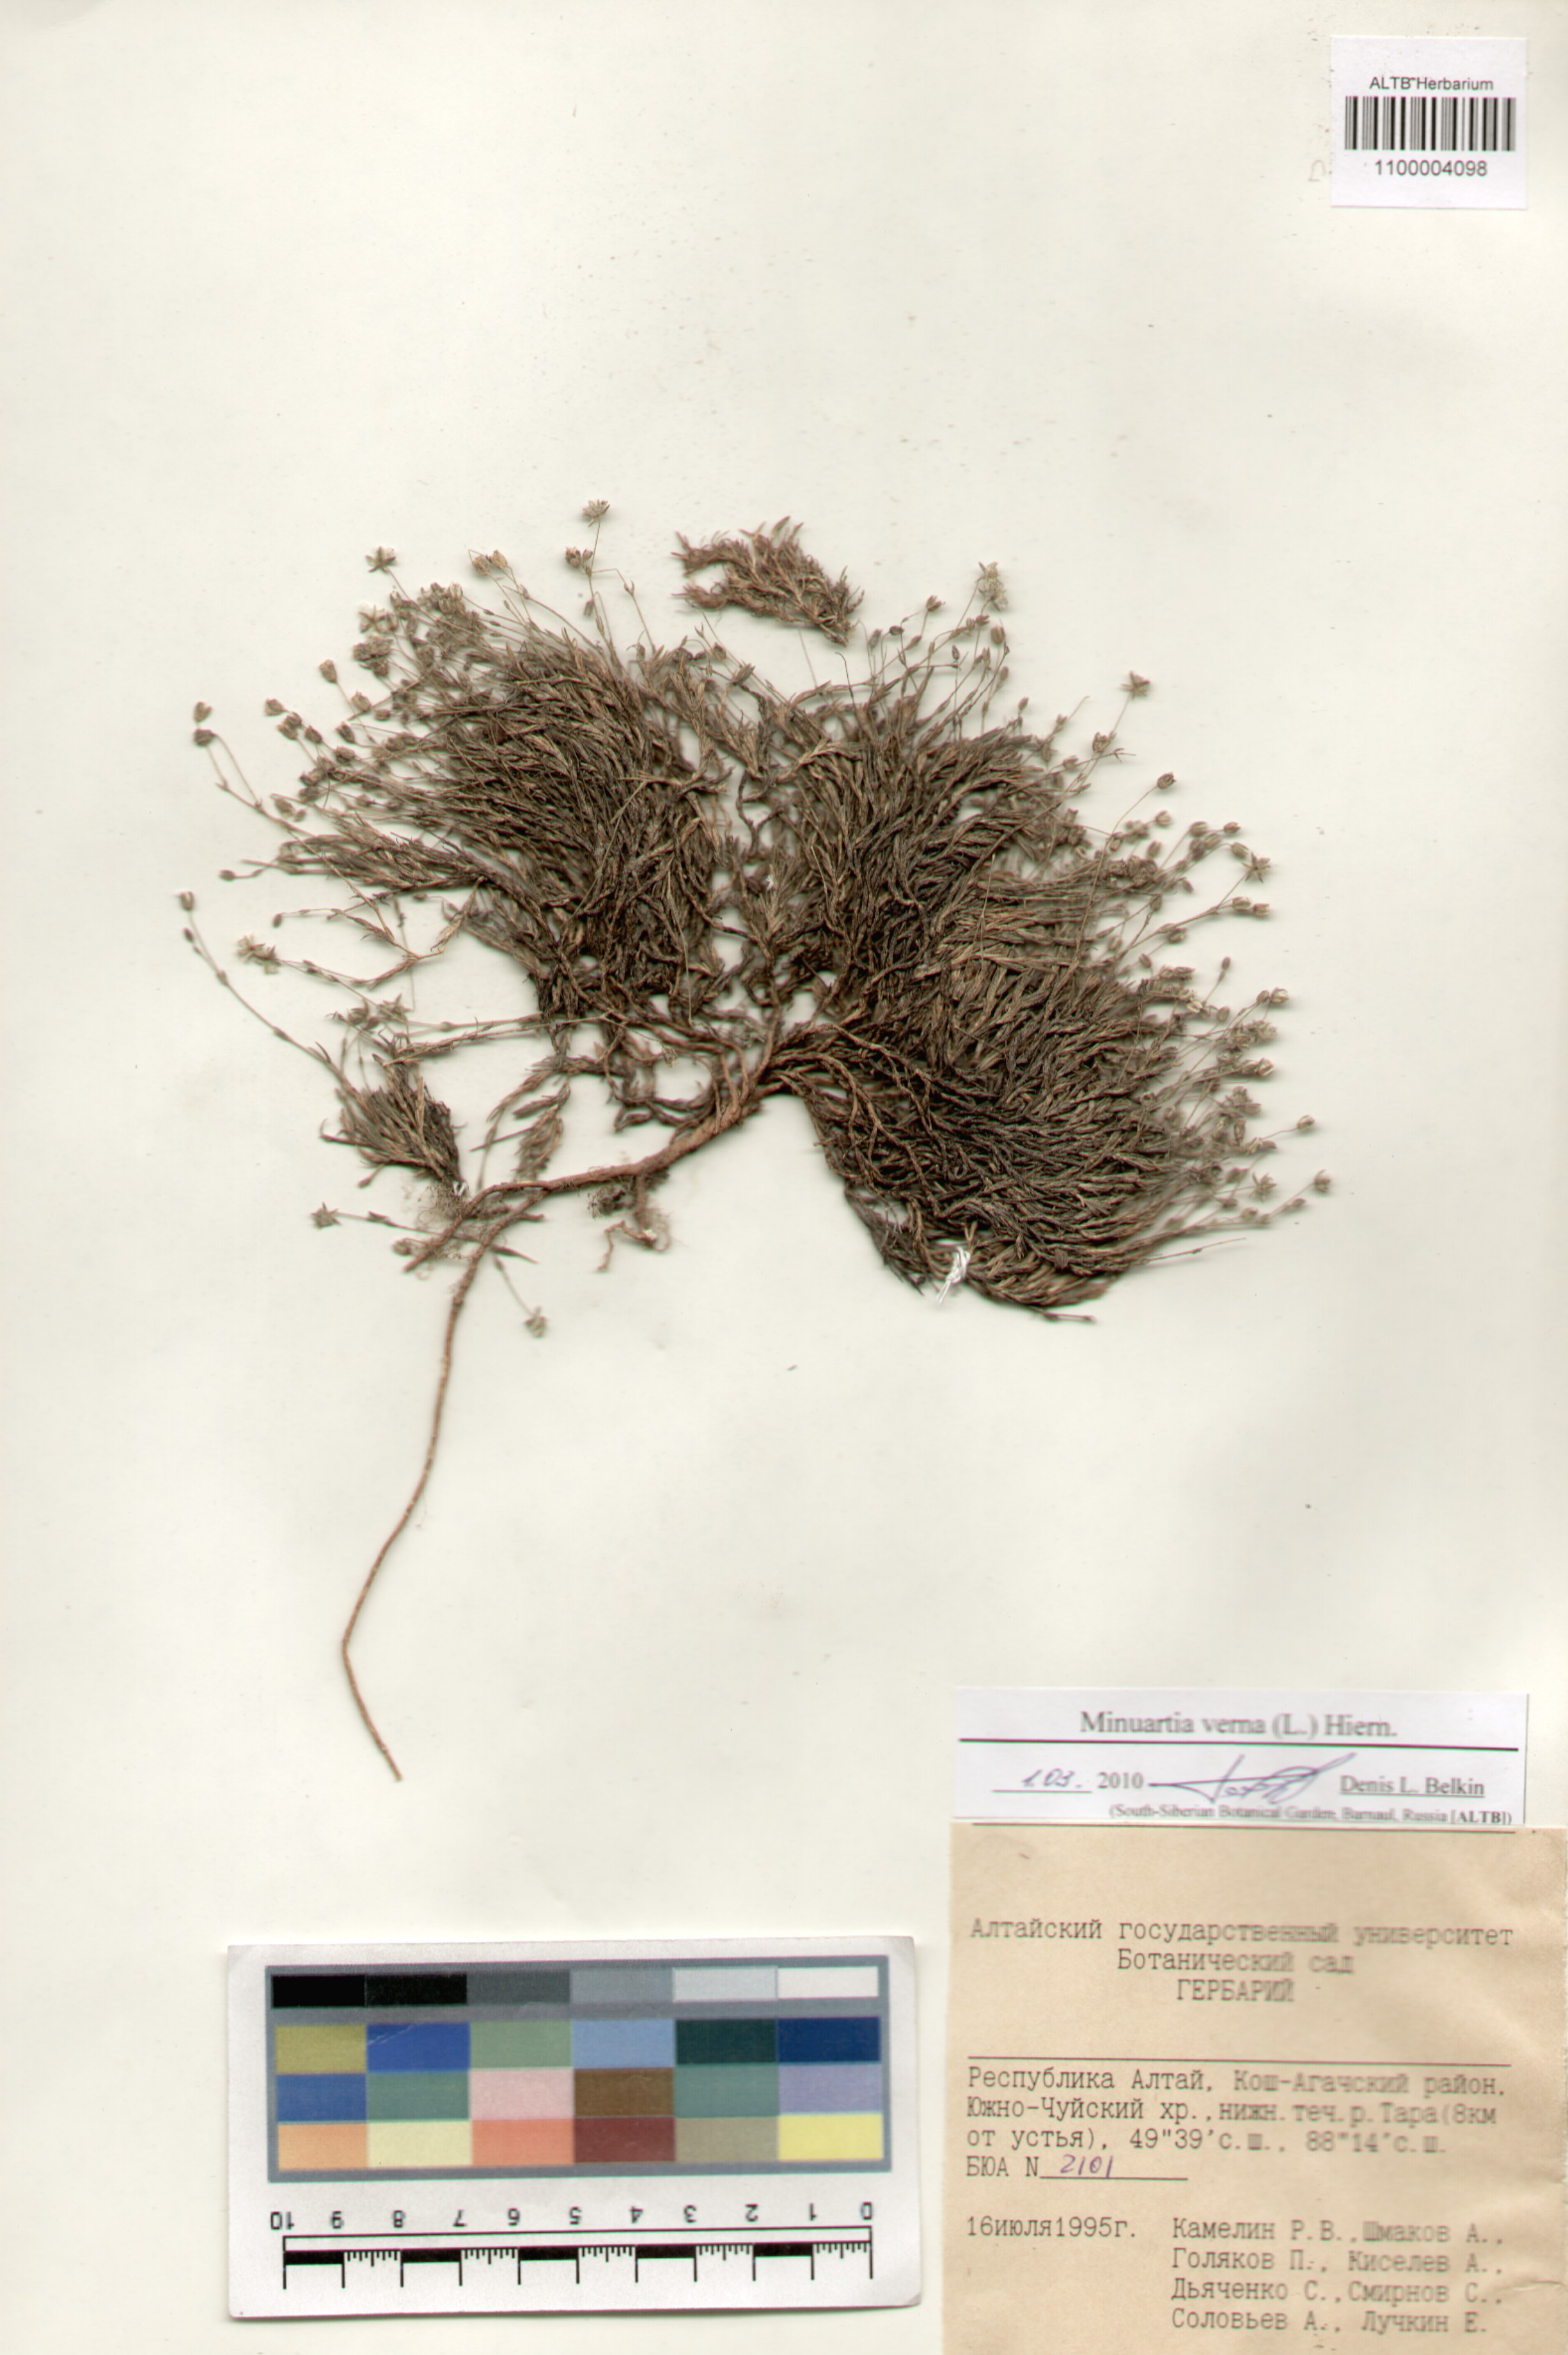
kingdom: Plantae
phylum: Tracheophyta
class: Magnoliopsida
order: Caryophyllales
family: Caryophyllaceae
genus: Sabulina
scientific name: Sabulina verna
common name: Spring sandwort
